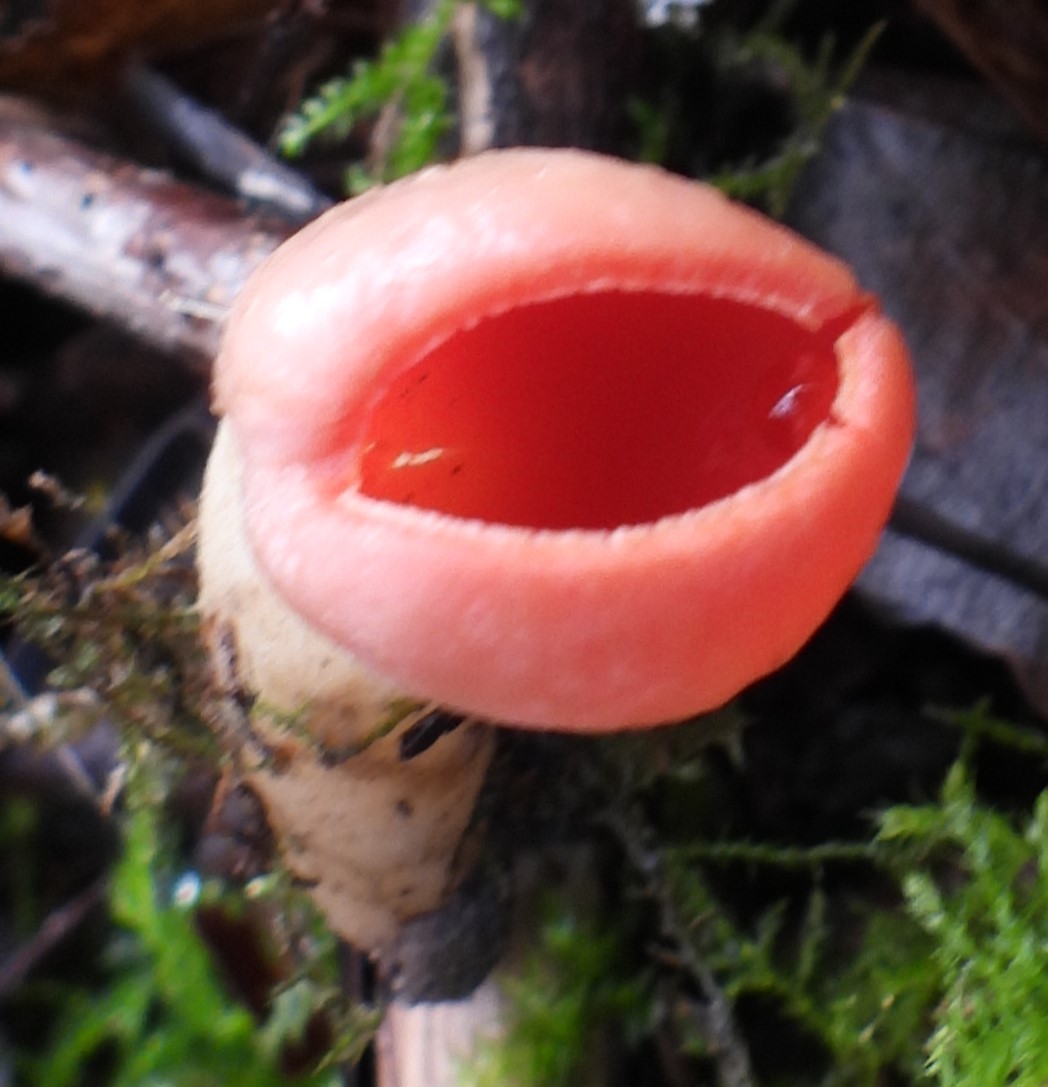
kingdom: Fungi
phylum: Ascomycota
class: Pezizomycetes
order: Pezizales
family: Sarcoscyphaceae
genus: Sarcoscypha
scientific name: Sarcoscypha austriaca
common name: krølhåret pragtbæger
